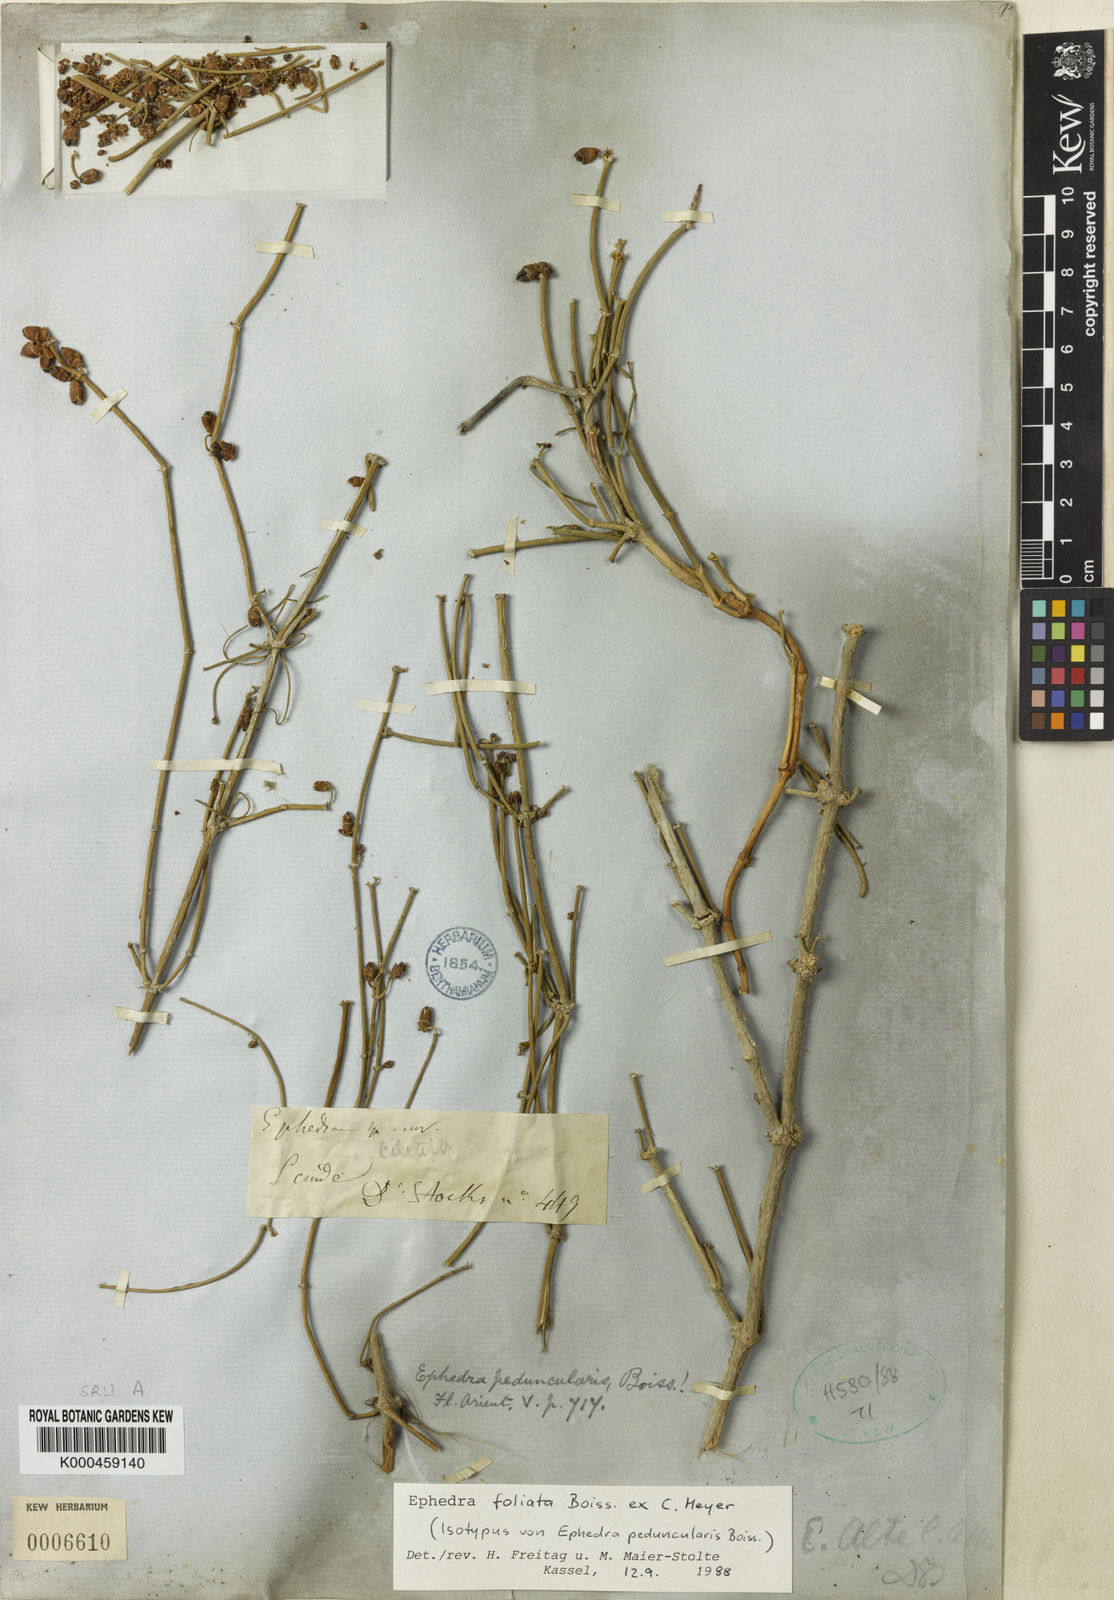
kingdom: Plantae
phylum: Tracheophyta
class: Gnetopsida
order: Ephedrales
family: Ephedraceae
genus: Ephedra
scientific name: Ephedra pachyclada
